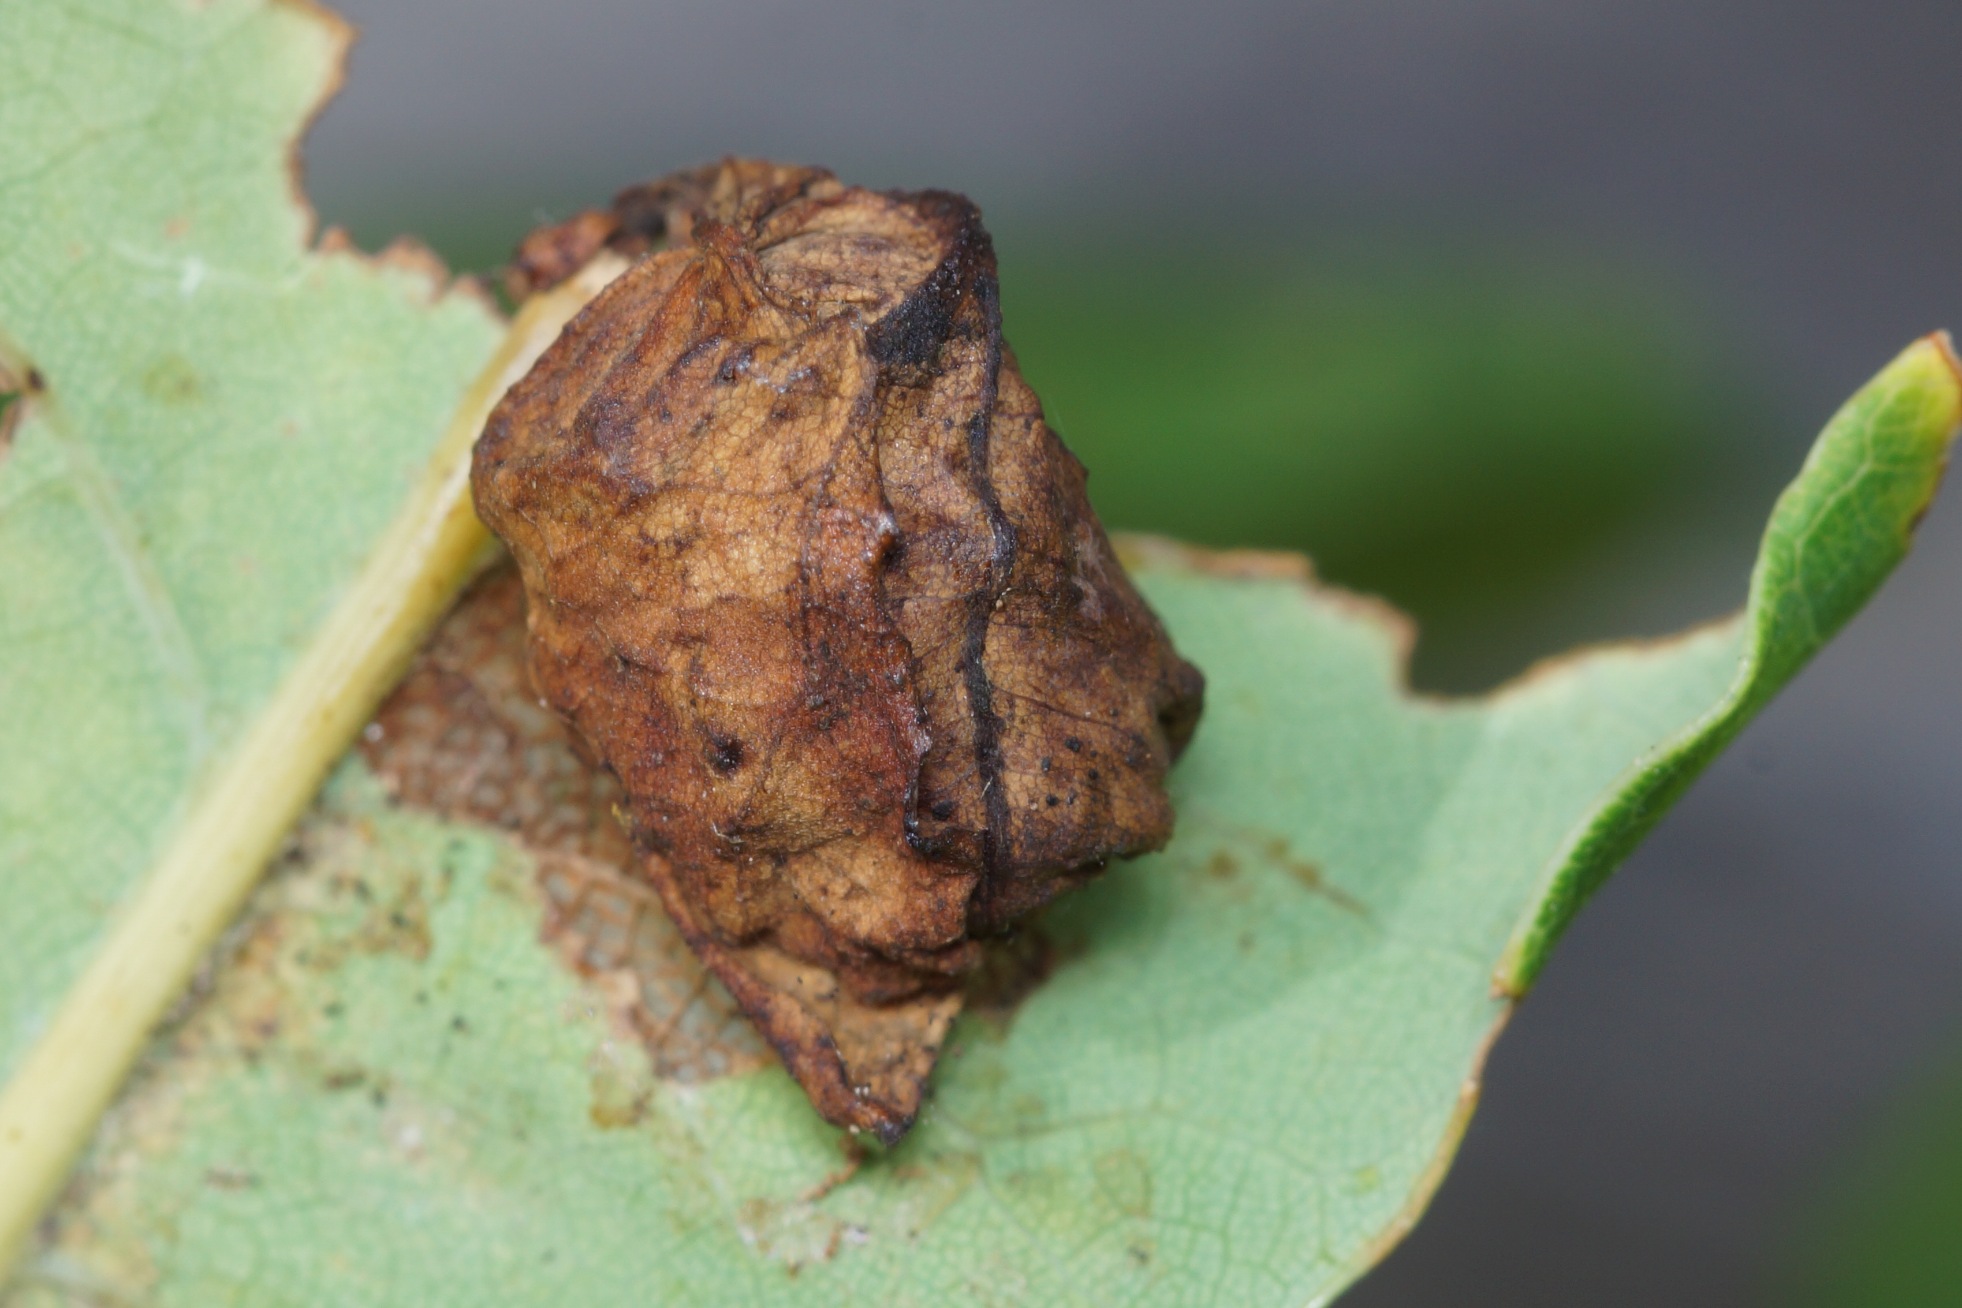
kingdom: Animalia
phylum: Arthropoda
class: Insecta
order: Coleoptera
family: Attelabidae
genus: Attelabus
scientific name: Attelabus nitens
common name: Egebladruller
